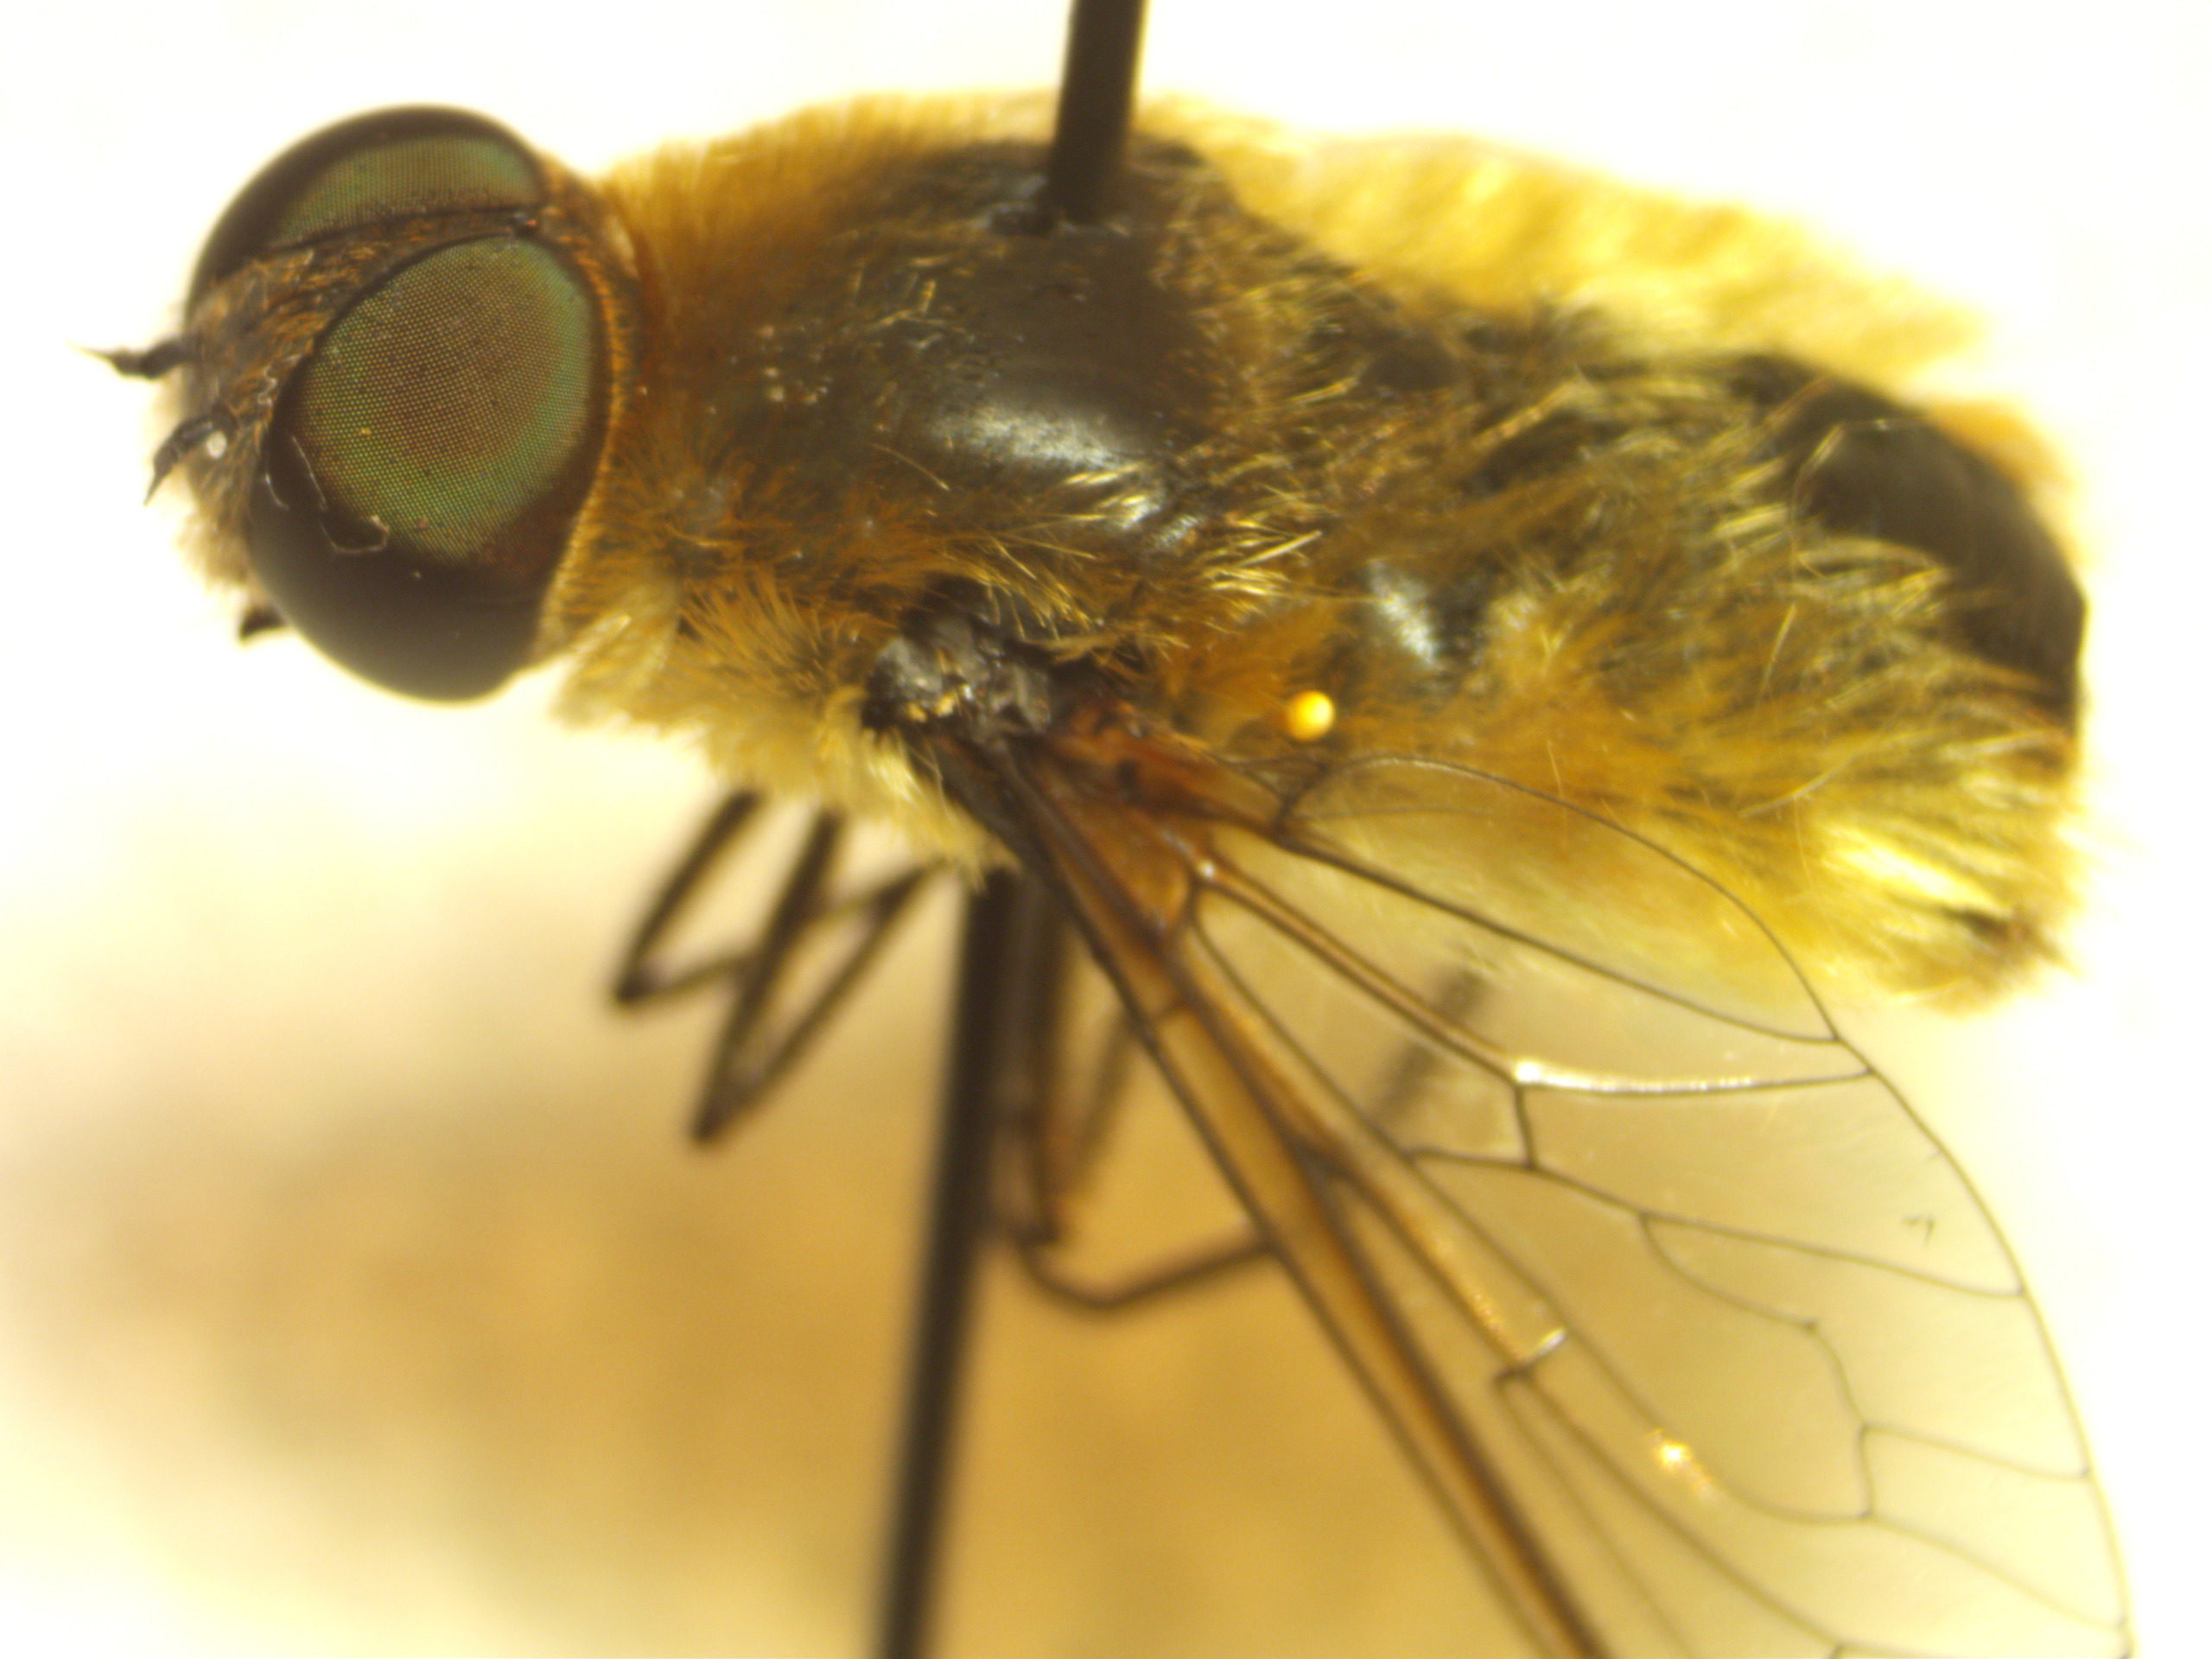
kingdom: Animalia
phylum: Arthropoda
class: Insecta
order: Diptera
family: Bombyliidae
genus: Villa
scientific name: Villa hottentotta
